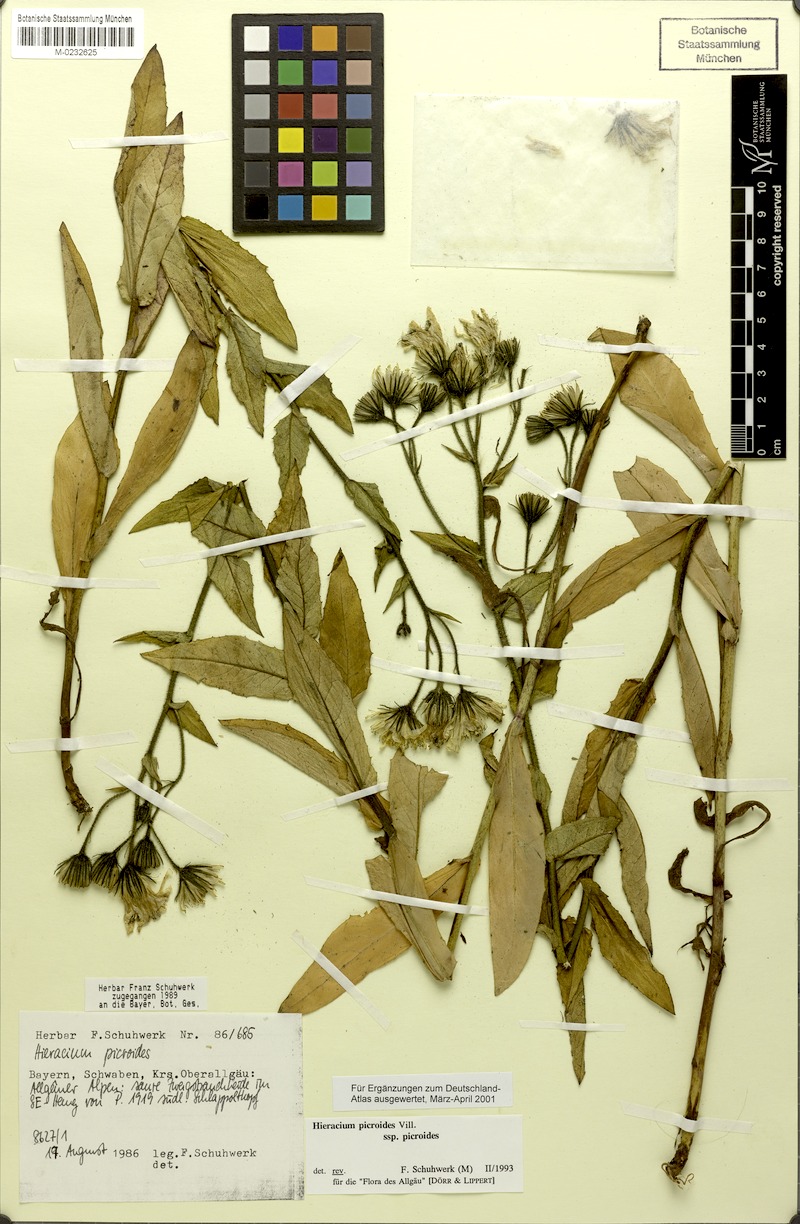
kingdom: Plantae
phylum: Tracheophyta
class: Magnoliopsida
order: Asterales
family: Asteraceae
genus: Hieracium
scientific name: Hieracium picroides
